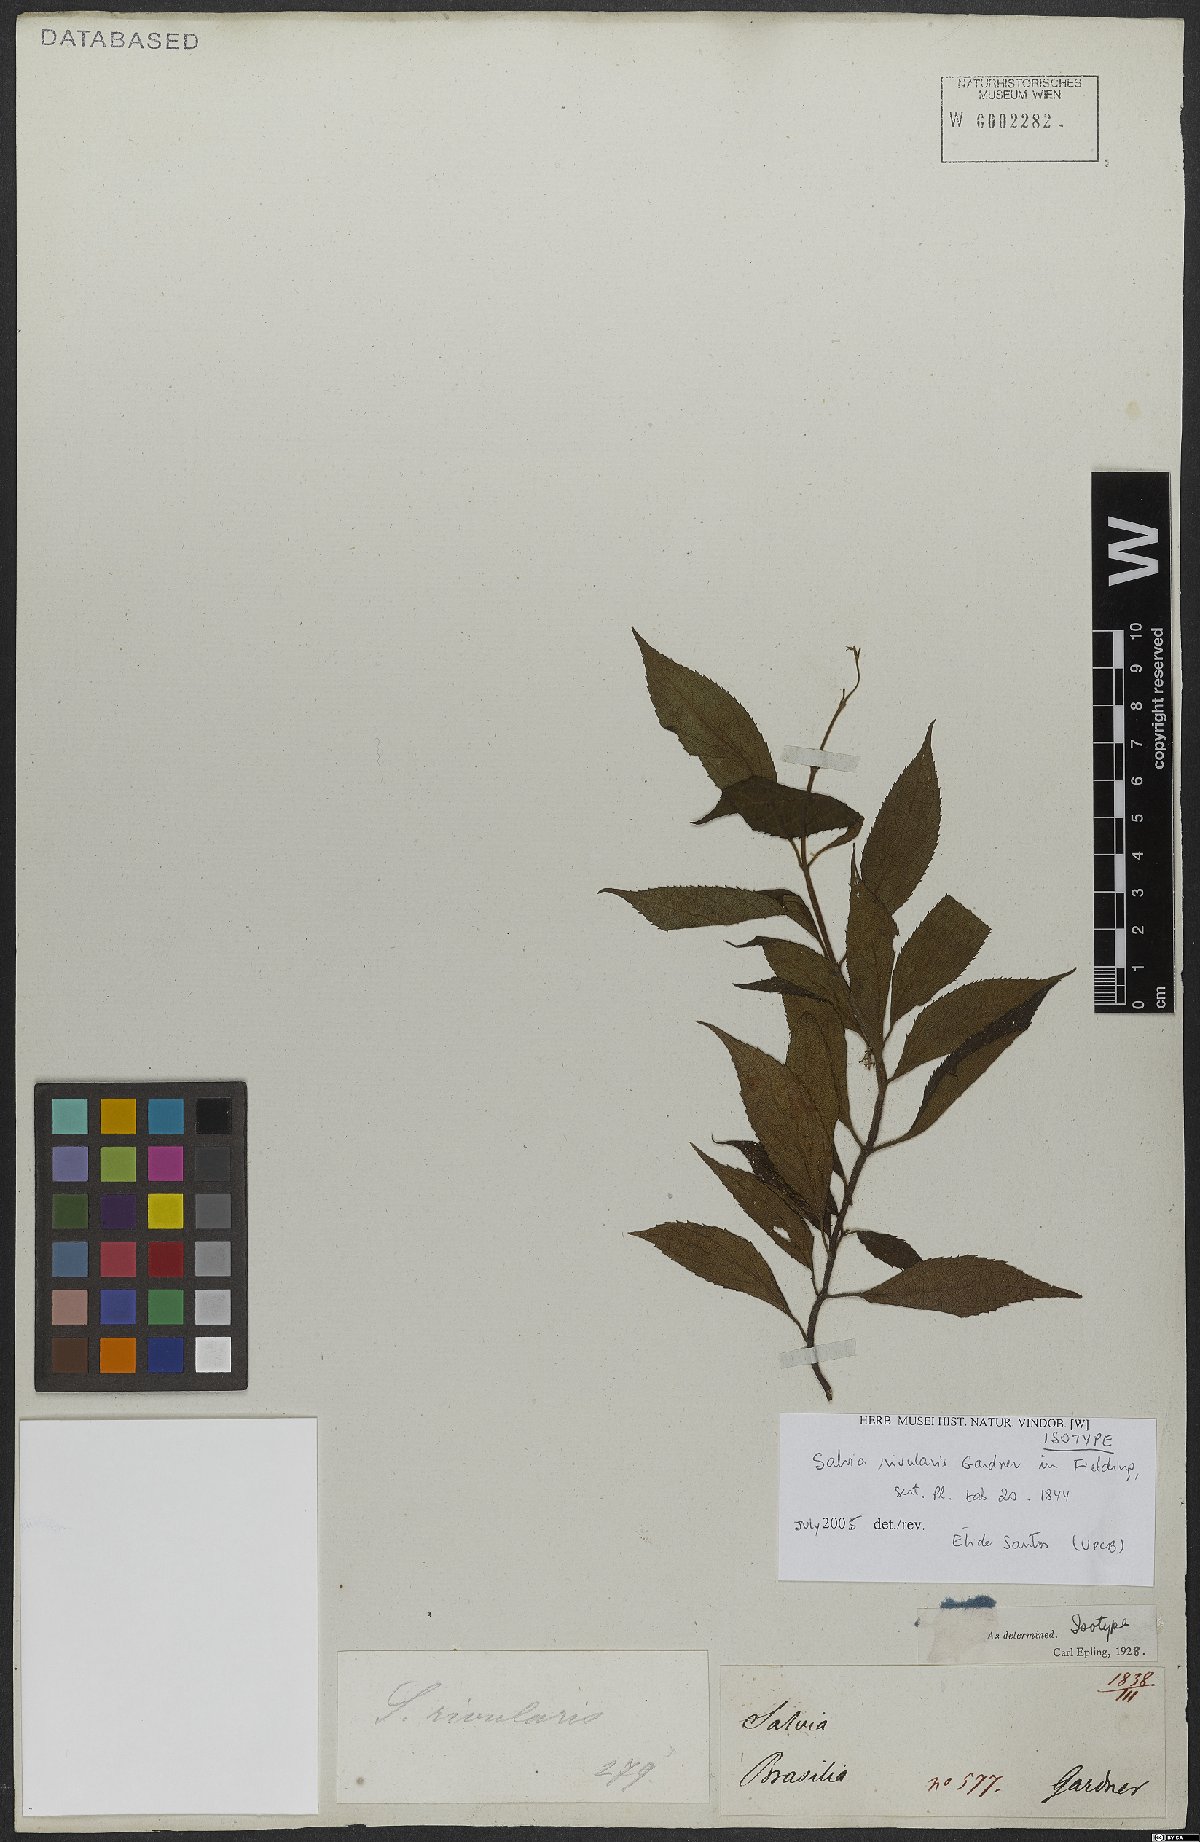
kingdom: Plantae
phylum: Tracheophyta
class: Magnoliopsida
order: Lamiales
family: Lamiaceae
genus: Salvia
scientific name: Salvia rivularis
